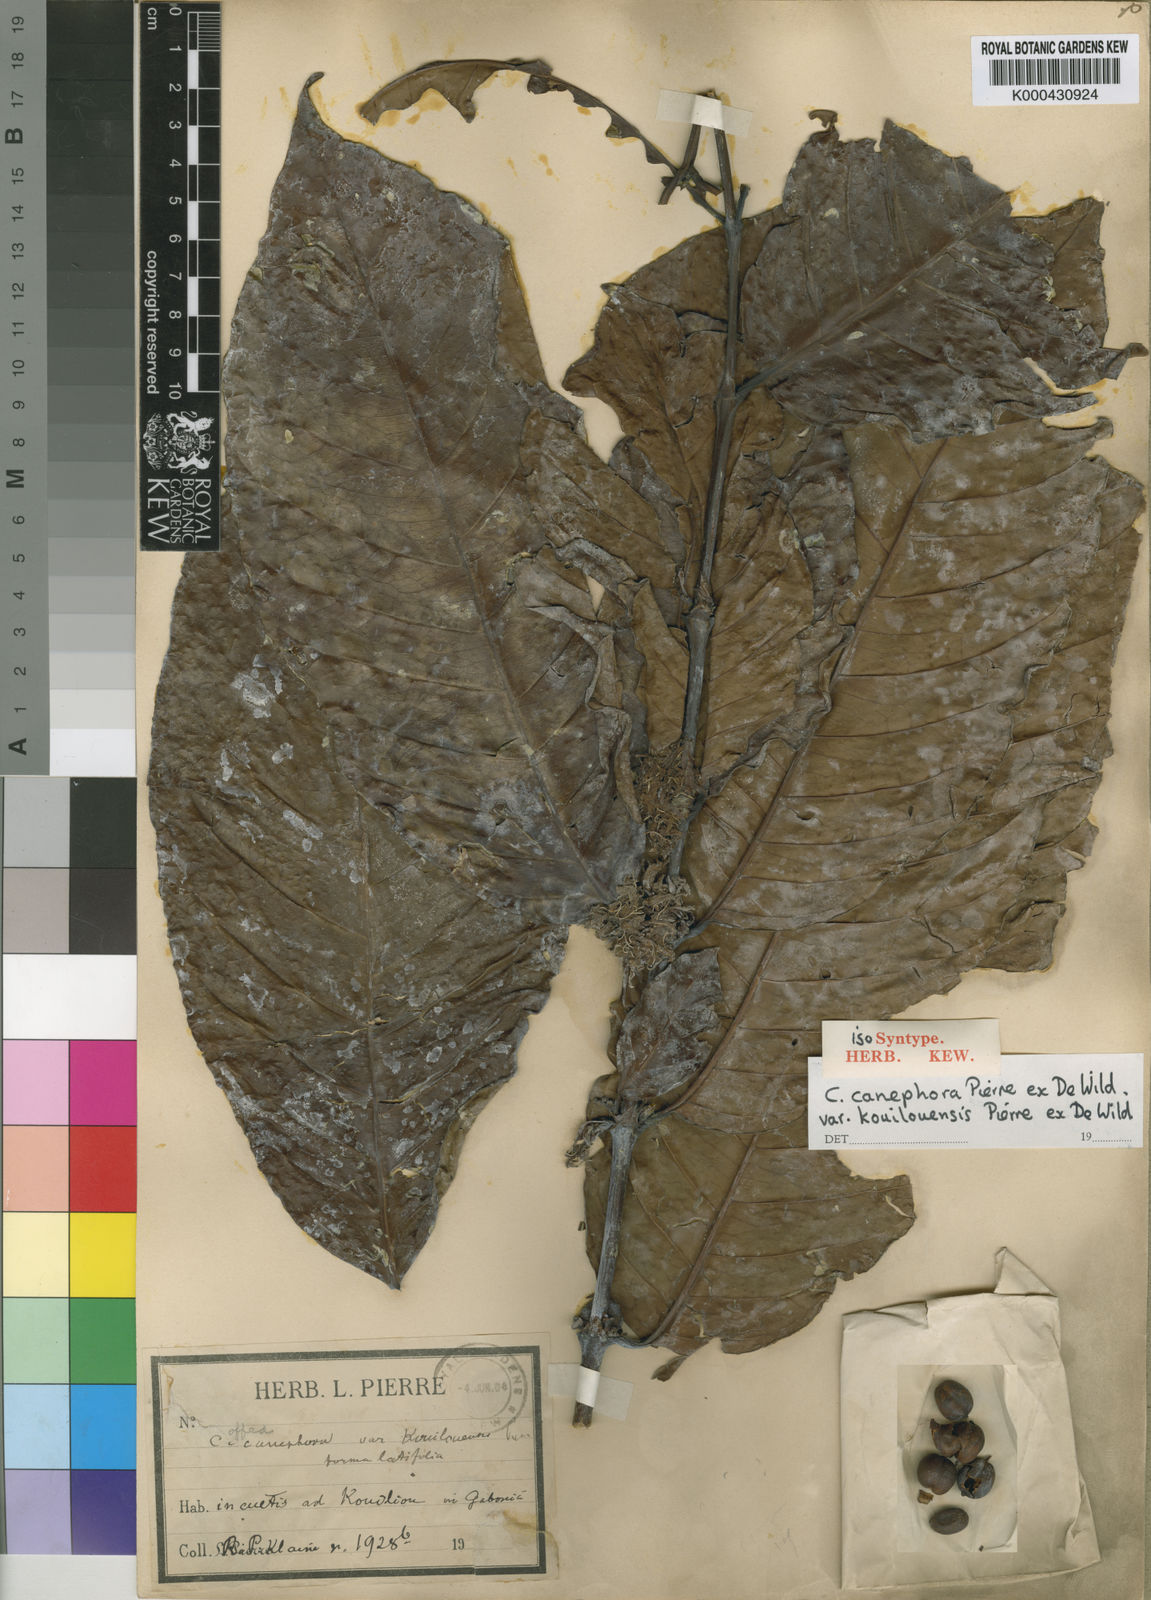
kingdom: Plantae
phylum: Tracheophyta
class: Magnoliopsida
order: Gentianales
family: Rubiaceae
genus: Coffea
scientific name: Coffea canephora
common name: Robusta coffee
